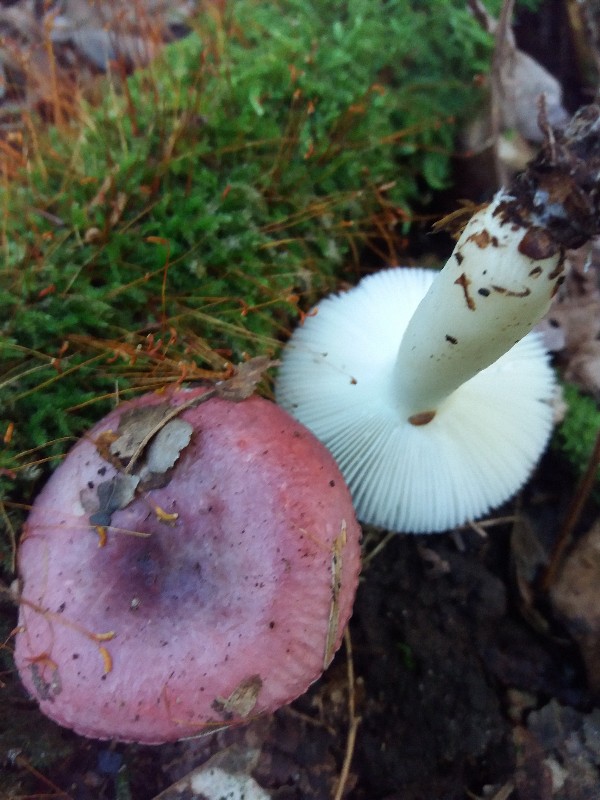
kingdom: Fungi
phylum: Basidiomycota
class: Agaricomycetes
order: Russulales
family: Russulaceae
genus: Russula
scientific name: Russula atrorubens
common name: sortrød skørhat
